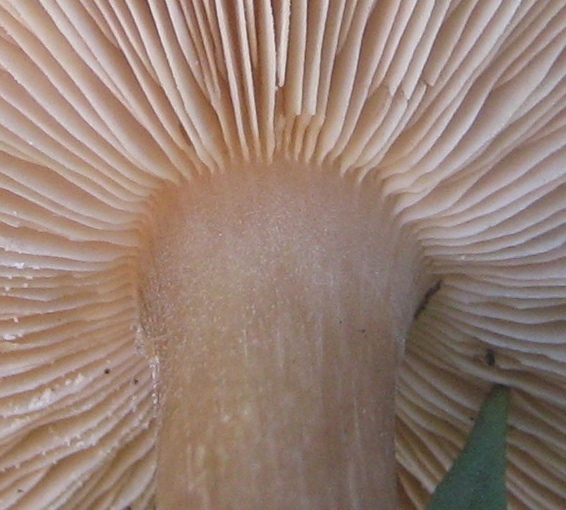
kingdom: Fungi
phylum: Basidiomycota
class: Agaricomycetes
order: Agaricales
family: Tricholomataceae
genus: Melanoleuca
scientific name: Melanoleuca
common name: munkehat
